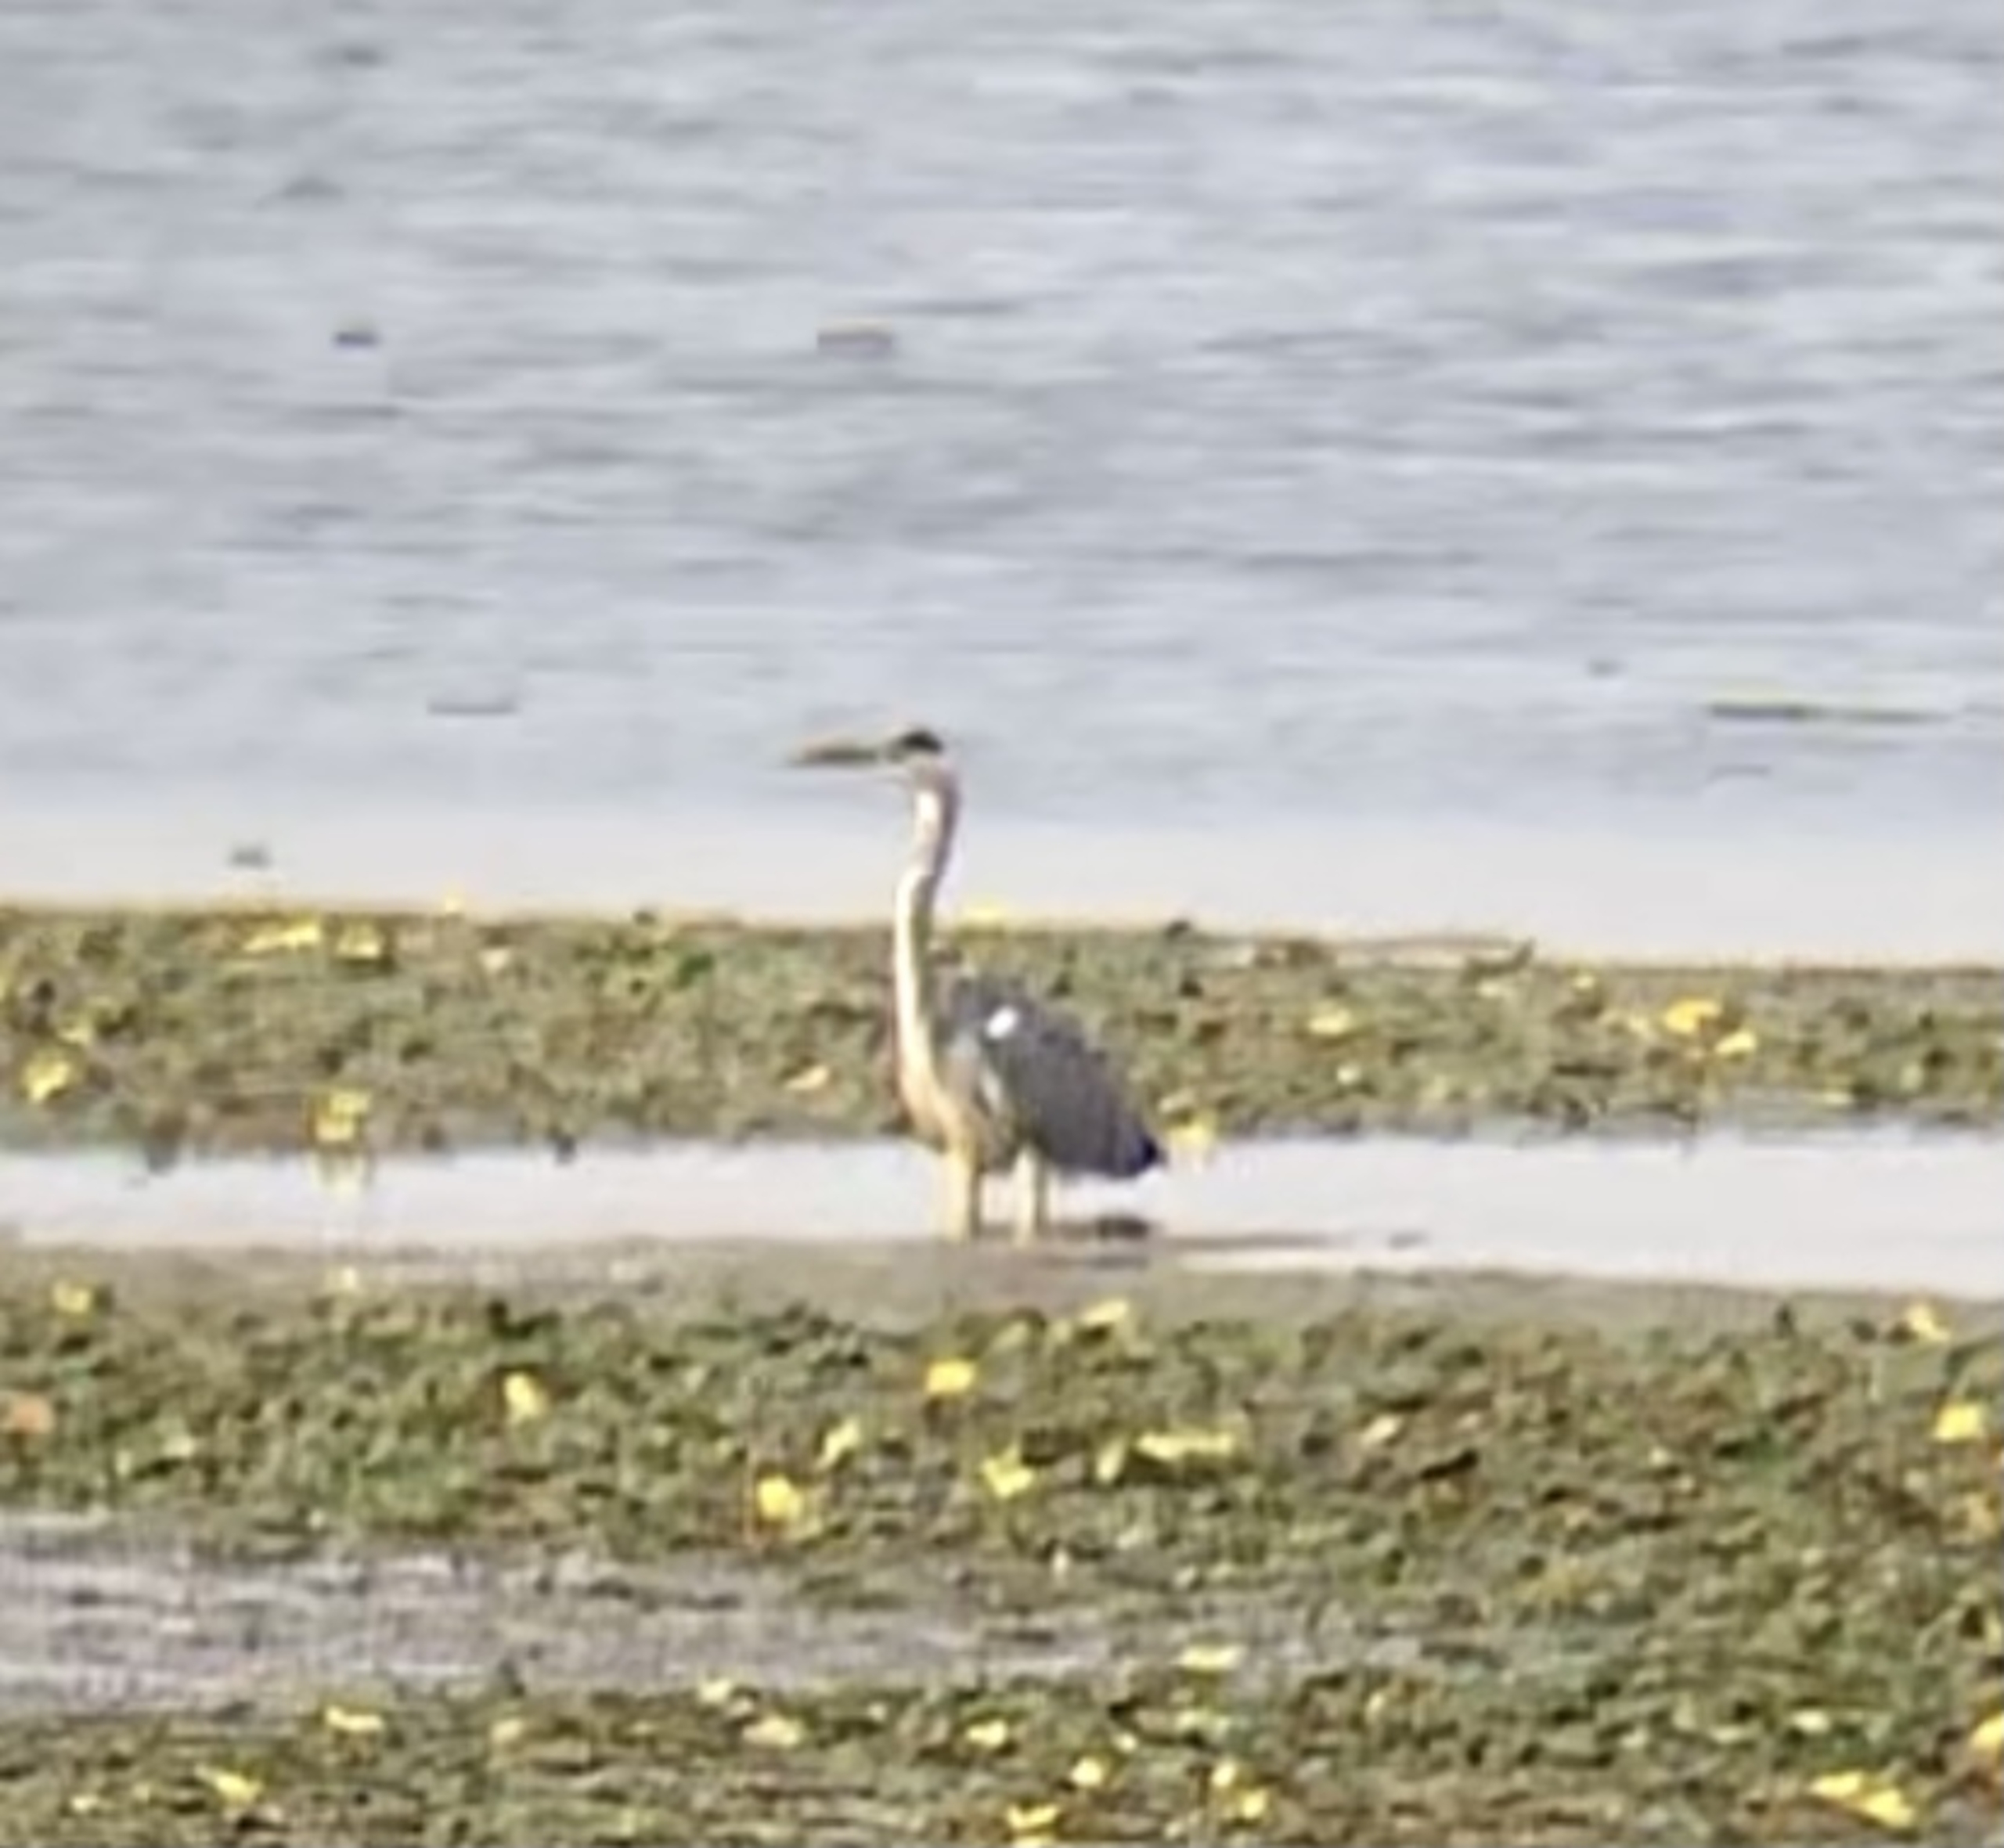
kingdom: Animalia
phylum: Chordata
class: Aves
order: Pelecaniformes
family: Ardeidae
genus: Ardea
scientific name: Ardea cinerea
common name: Fiskehejre
